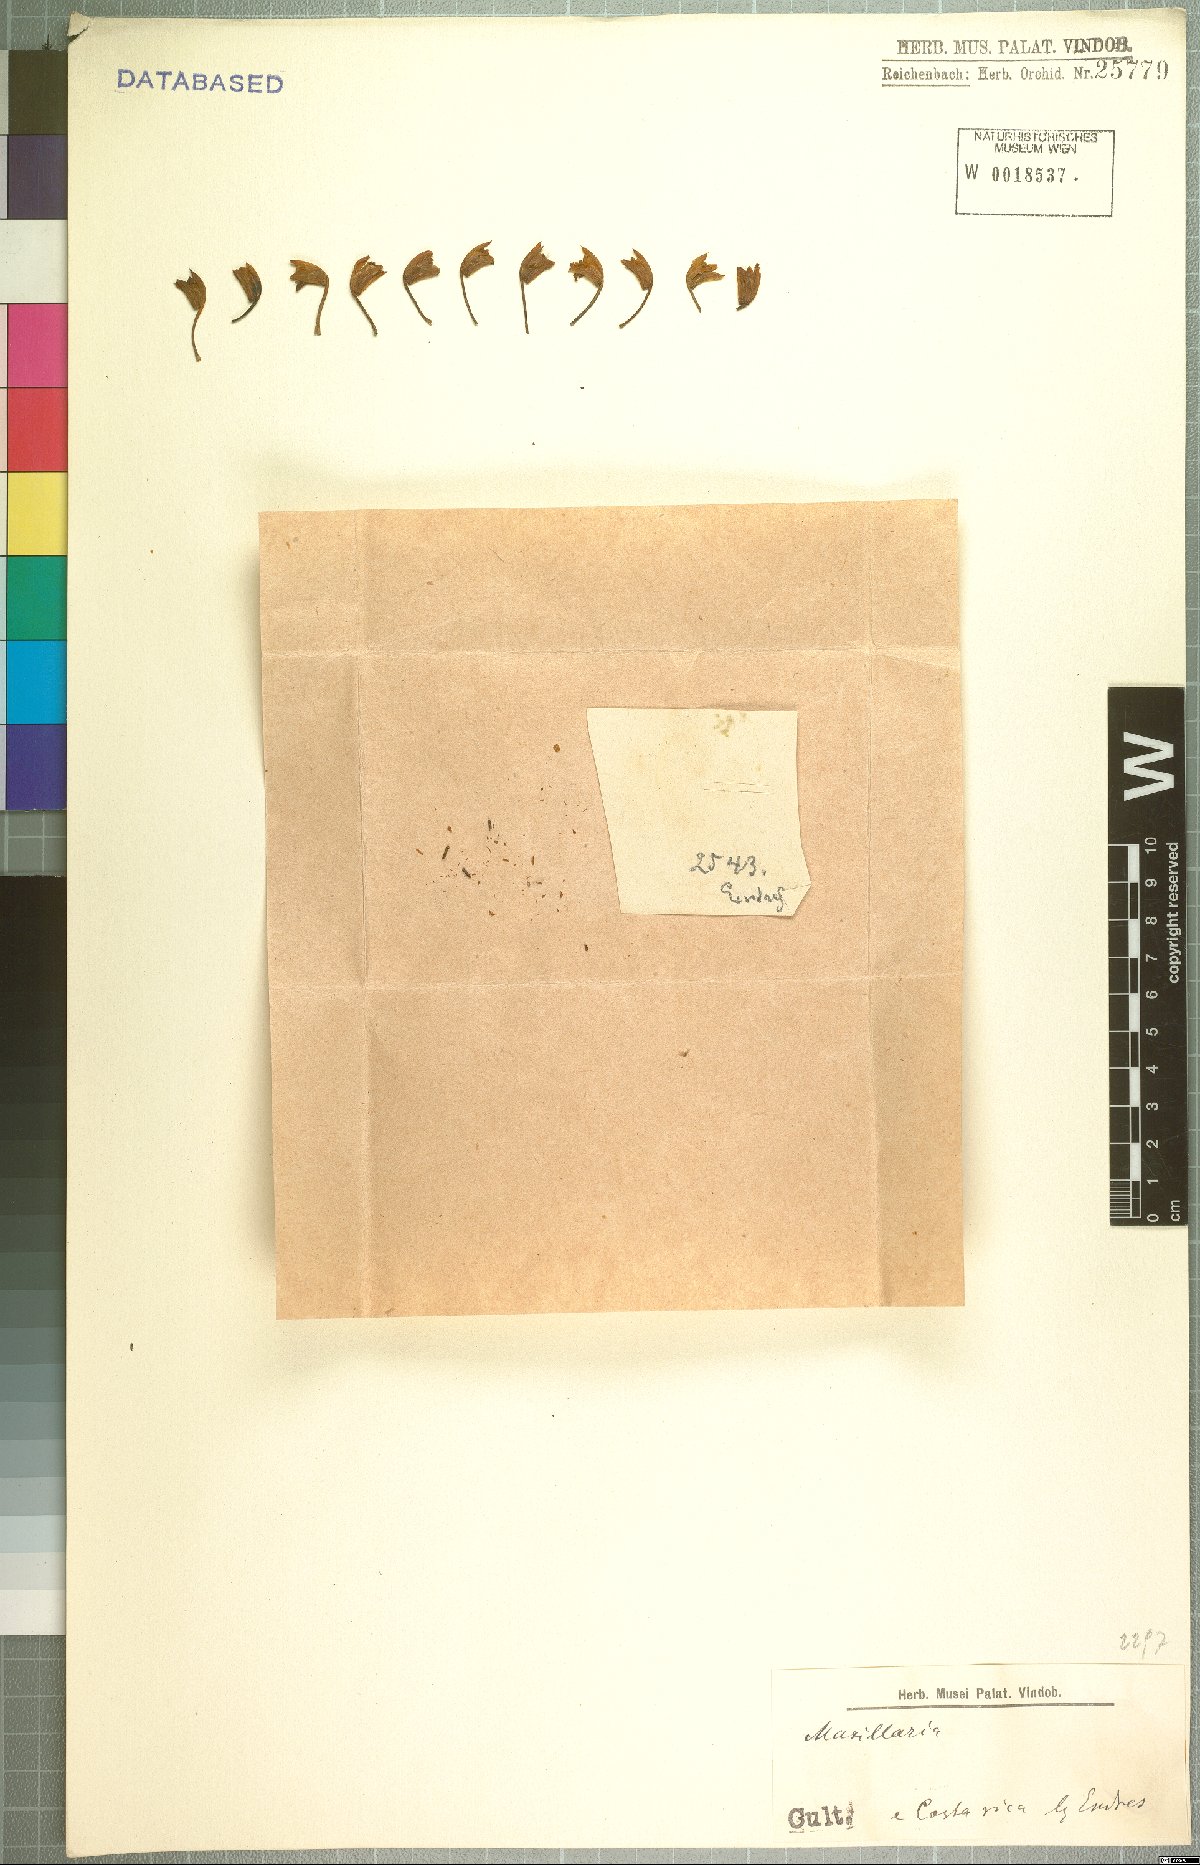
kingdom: Plantae
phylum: Tracheophyta
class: Liliopsida
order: Asparagales
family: Orchidaceae
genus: Maxillaria
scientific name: Maxillaria
